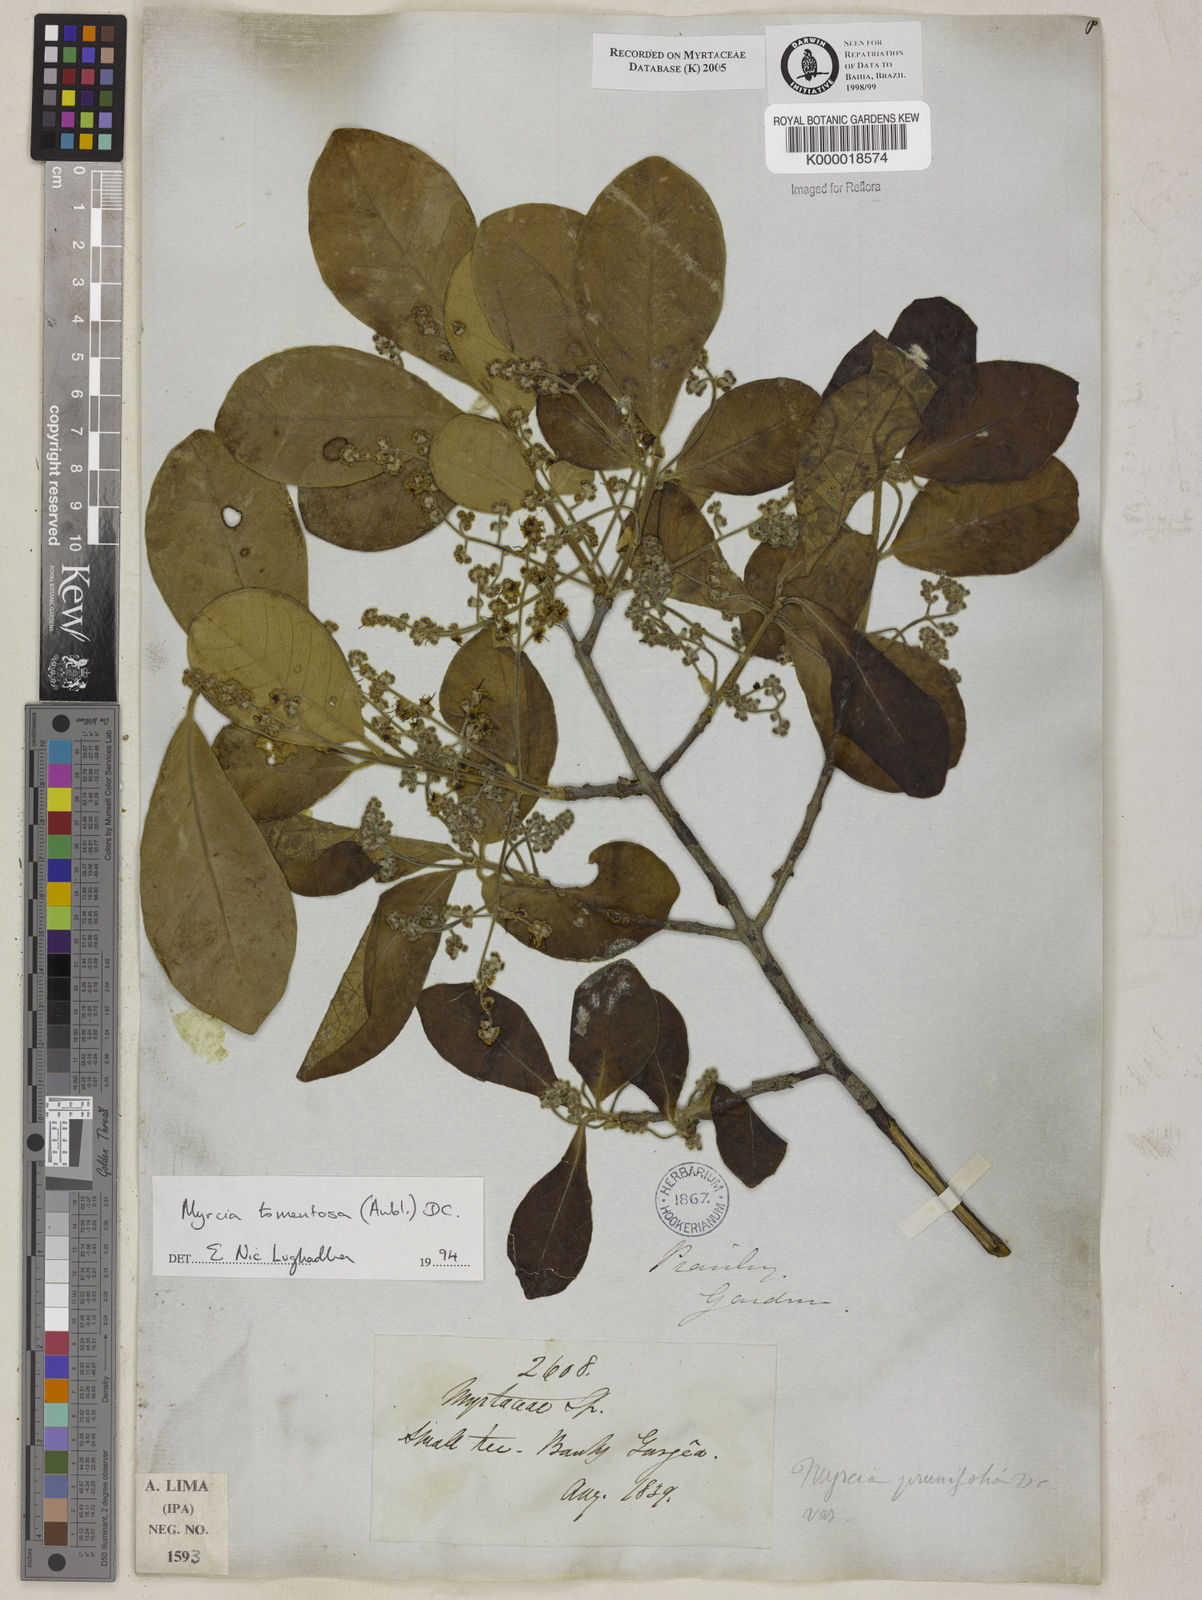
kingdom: Plantae
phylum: Tracheophyta
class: Magnoliopsida
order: Myrtales
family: Myrtaceae
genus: Myrcia
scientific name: Myrcia tomentosa
